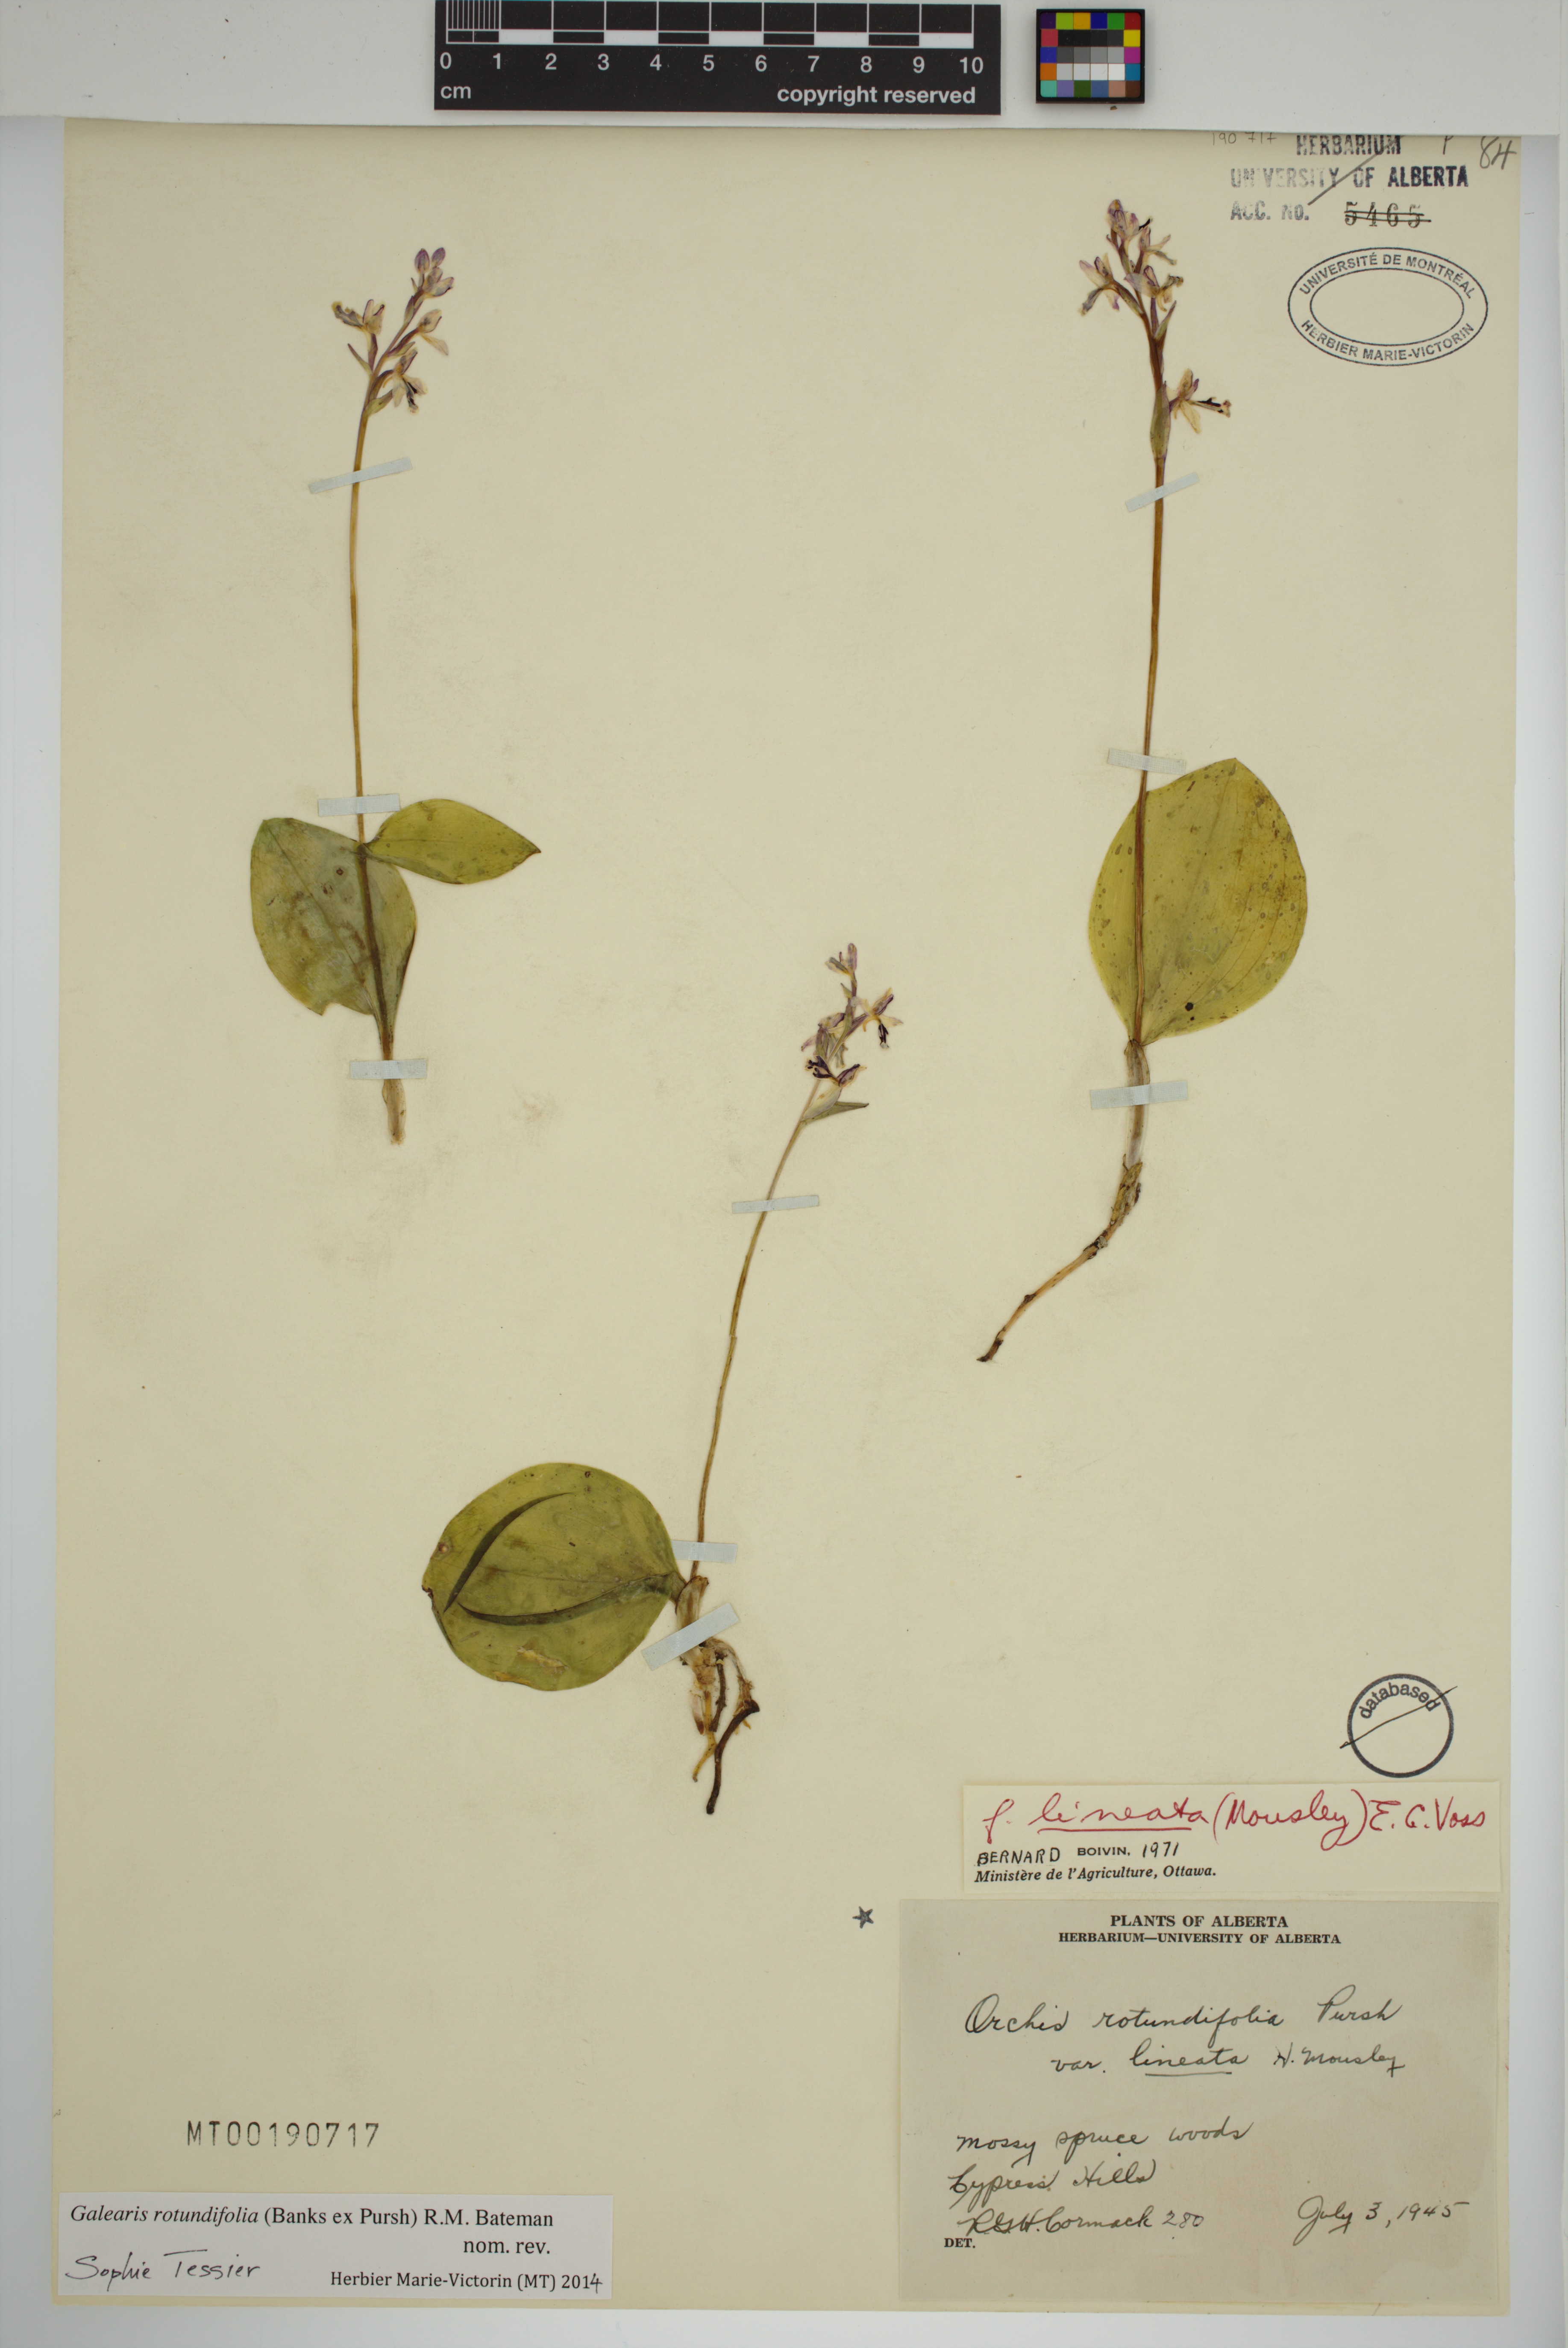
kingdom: Plantae
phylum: Tracheophyta
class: Liliopsida
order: Asparagales
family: Orchidaceae
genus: Galearis
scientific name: Galearis rotundifolia
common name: One-leaved orchis
